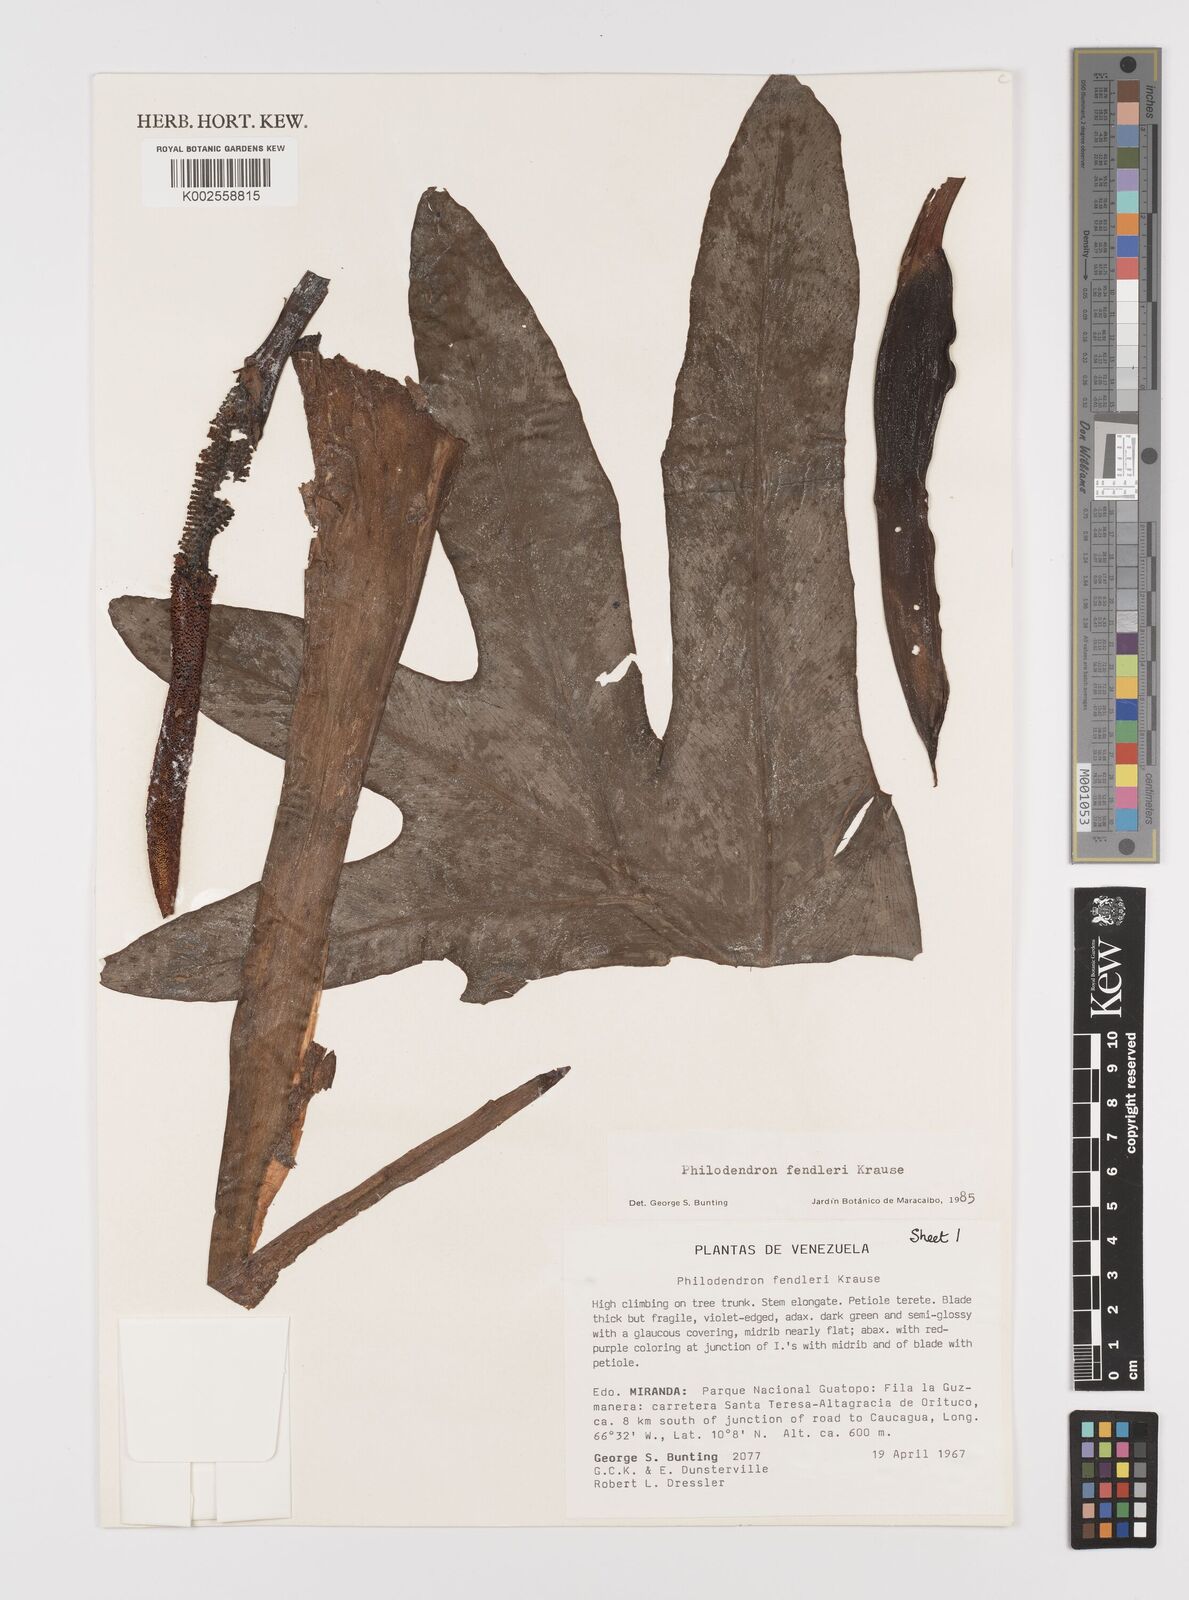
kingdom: Plantae
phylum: Tracheophyta
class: Liliopsida
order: Alismatales
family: Araceae
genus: Philodendron
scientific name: Philodendron fendleri
